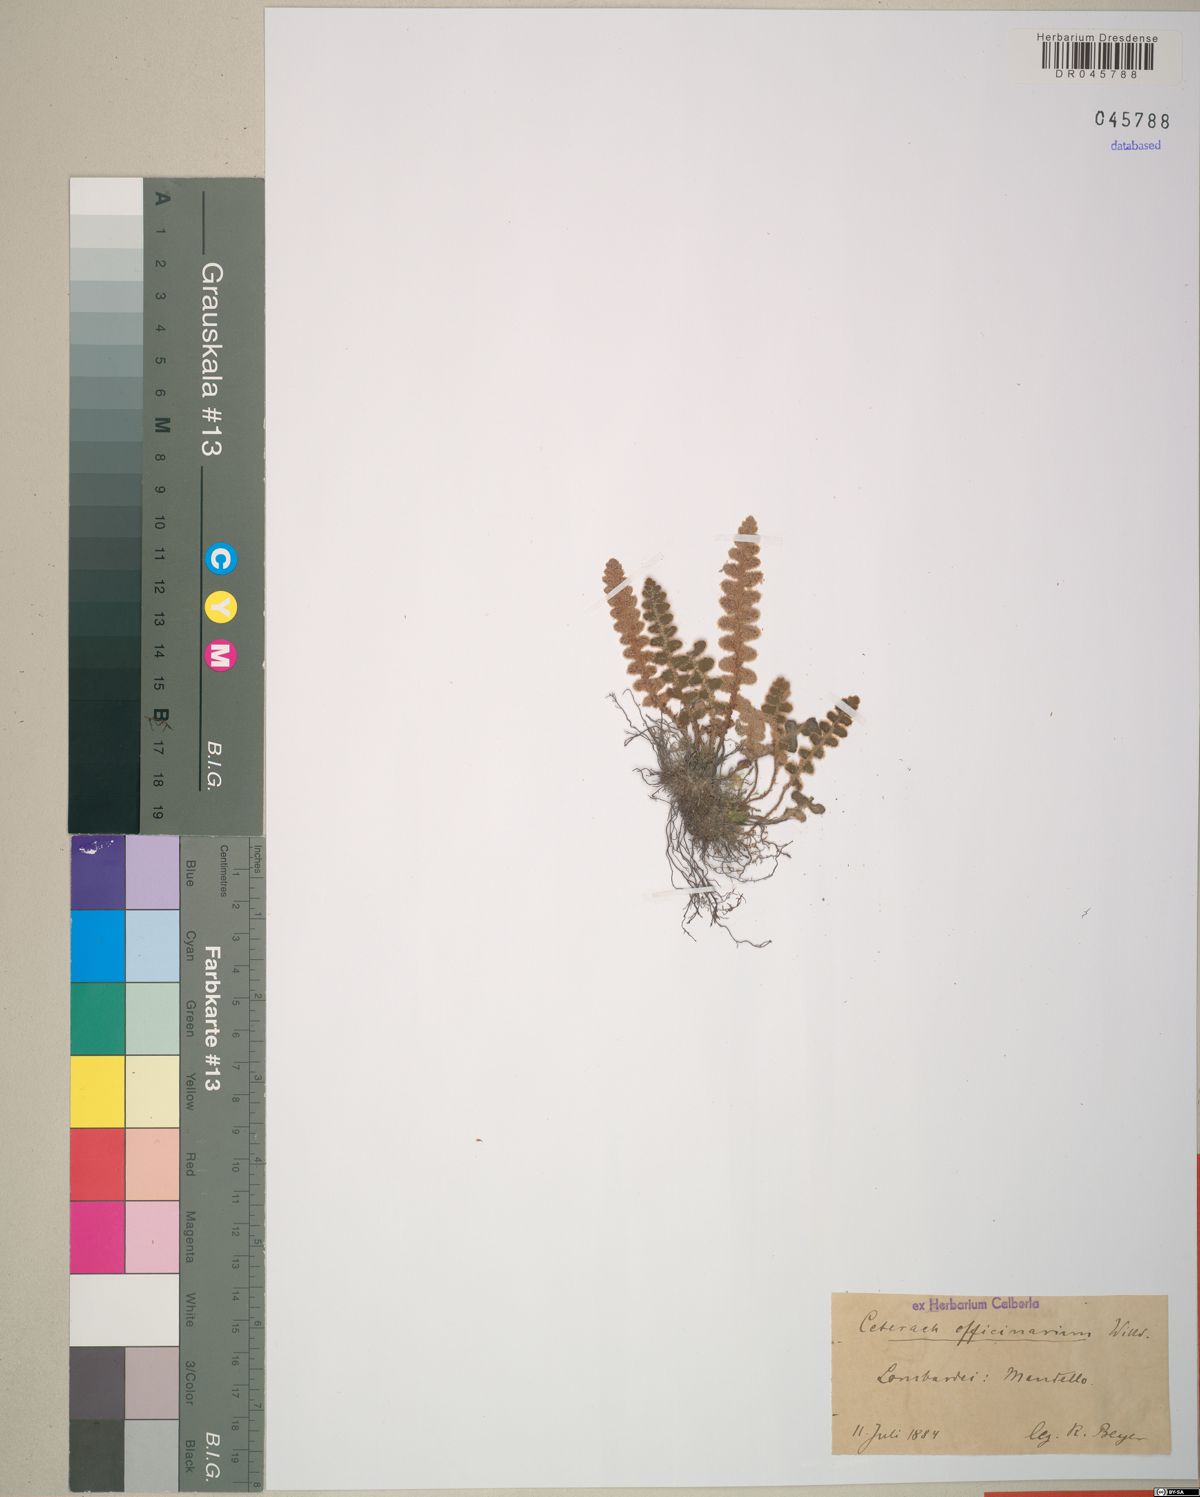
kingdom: Plantae
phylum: Tracheophyta
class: Polypodiopsida
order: Polypodiales
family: Aspleniaceae
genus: Asplenium
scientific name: Asplenium ceterach
